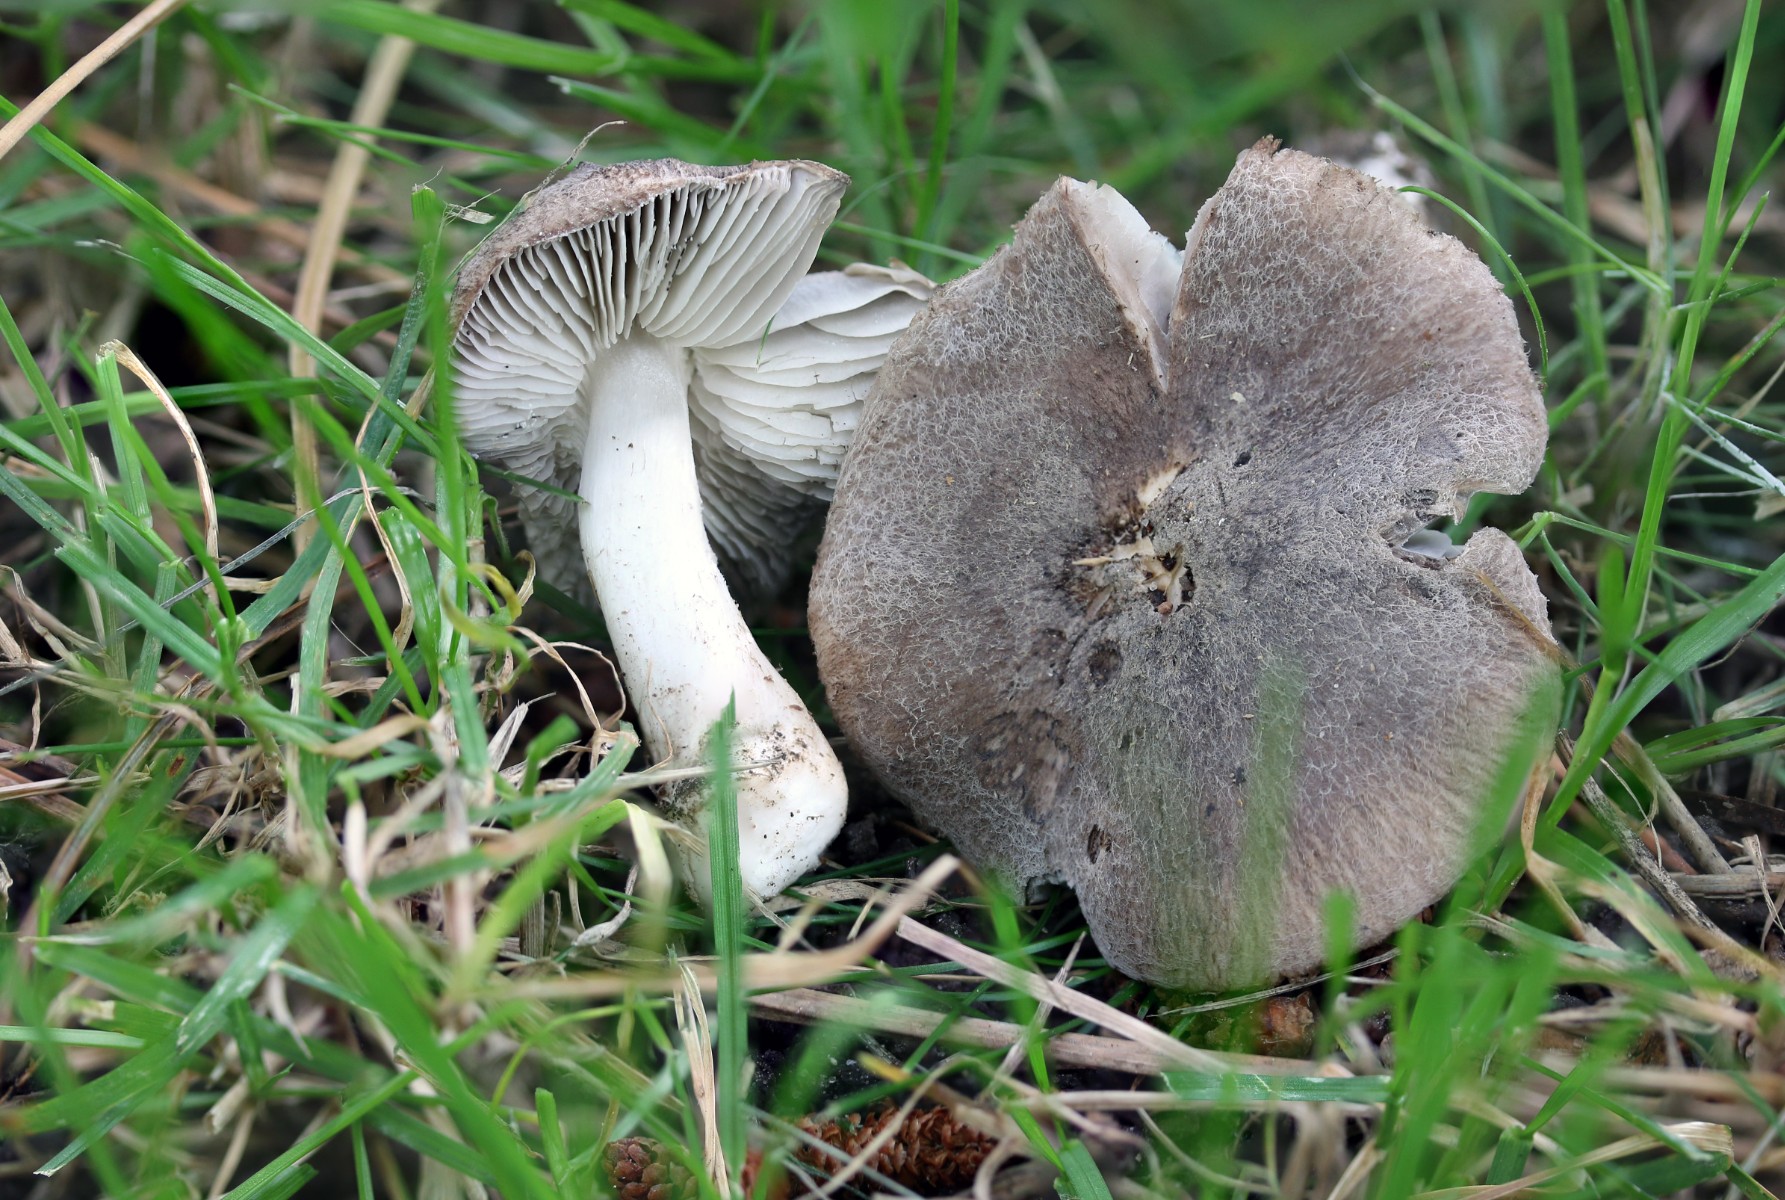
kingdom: Fungi
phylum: Basidiomycota
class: Agaricomycetes
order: Agaricales
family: Tricholomataceae
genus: Tricholoma
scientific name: Tricholoma terreum
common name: jordfarvet ridderhat
